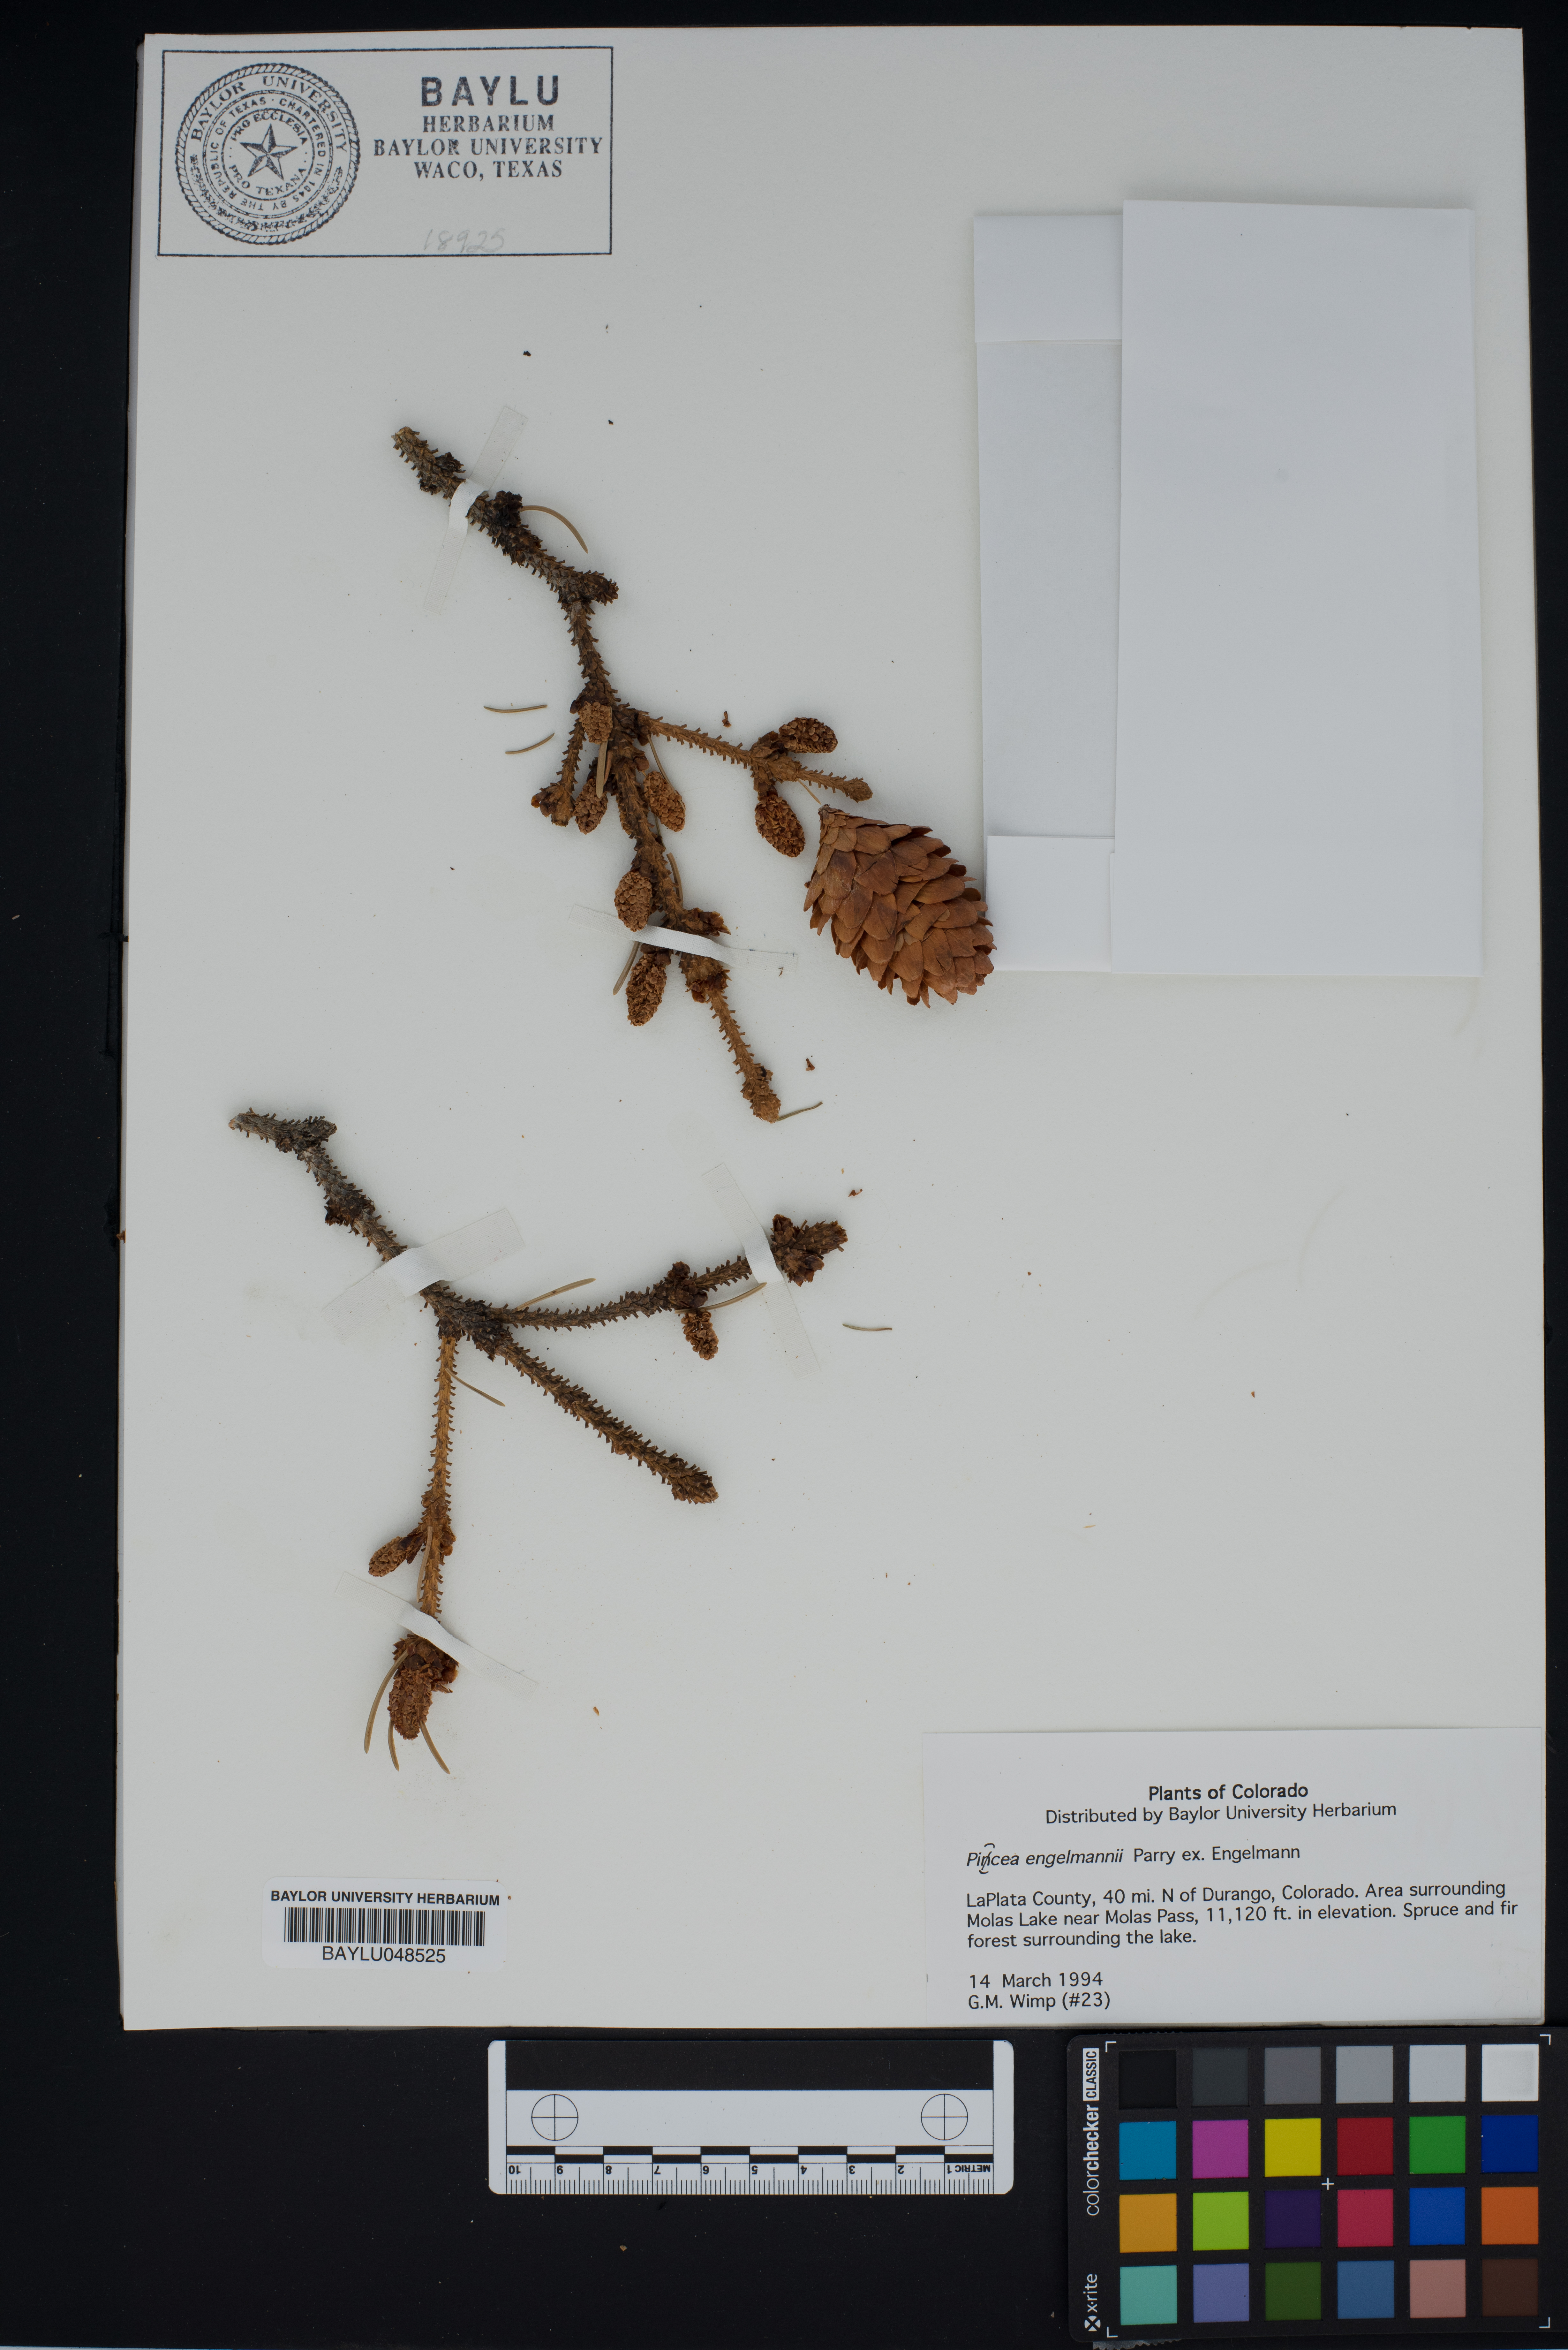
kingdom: Plantae
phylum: Tracheophyta
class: Pinopsida
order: Pinales
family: Pinaceae
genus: Picea
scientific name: Picea engelmannii
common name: Engelmann spruce
